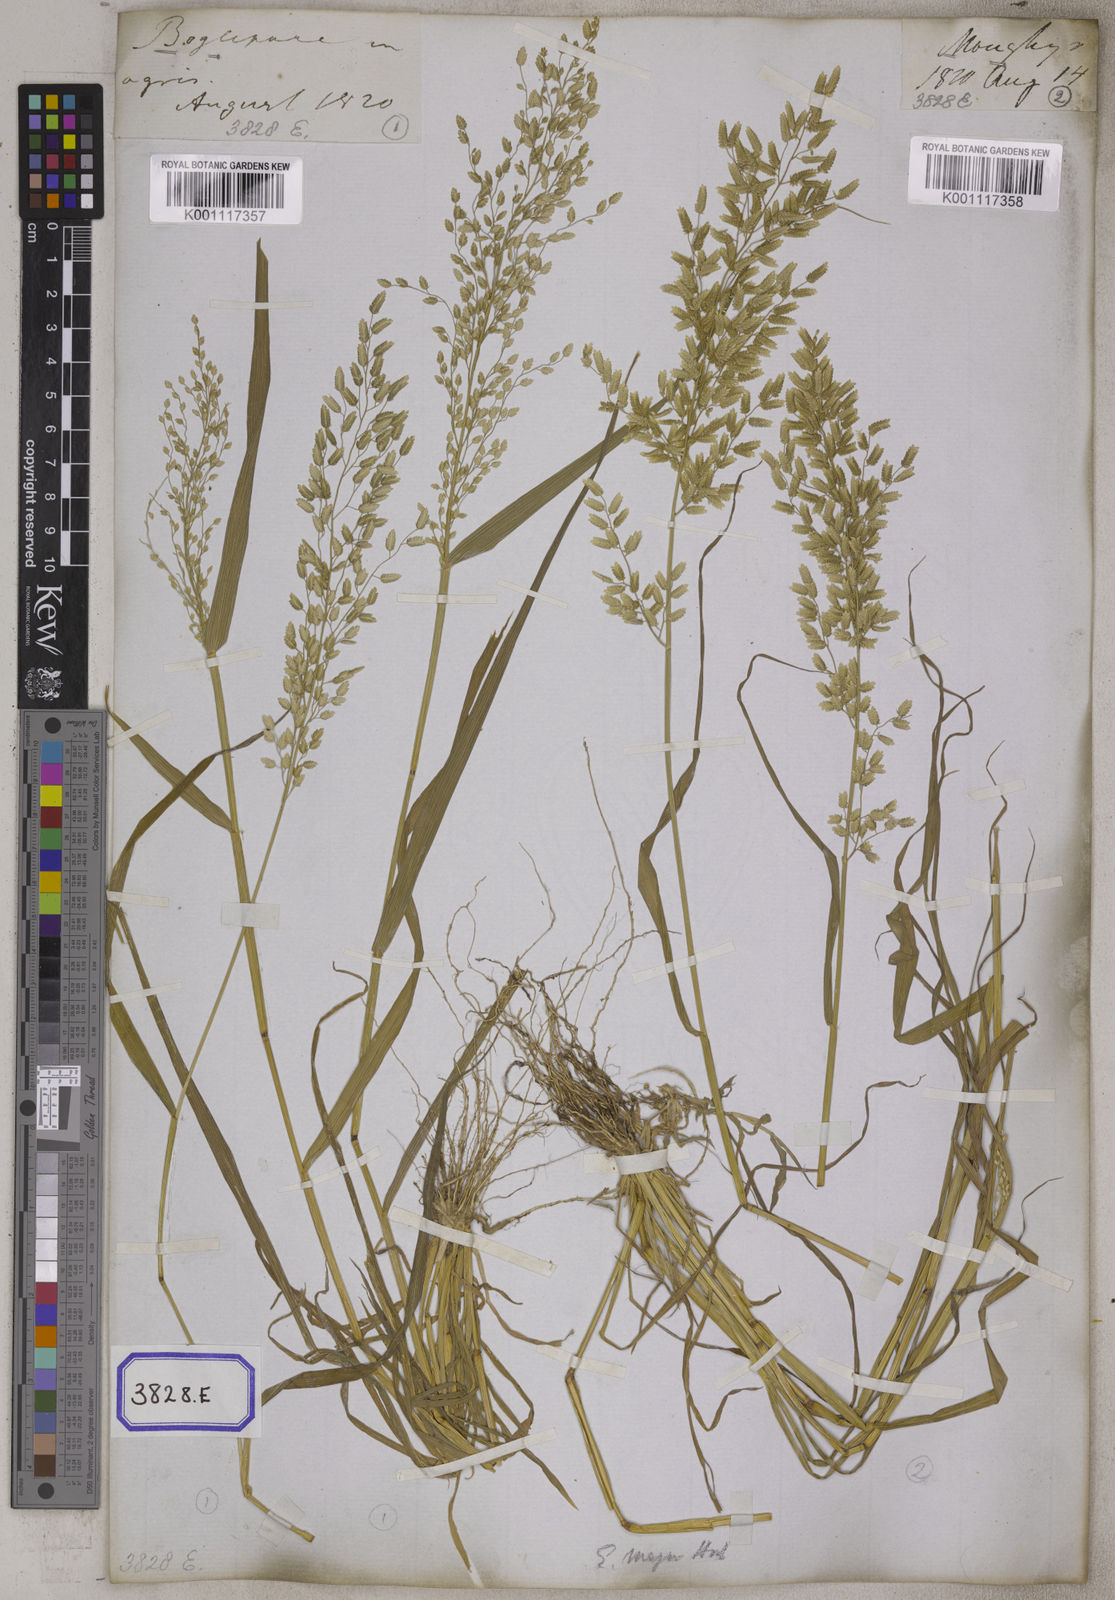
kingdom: Plantae
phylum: Tracheophyta
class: Liliopsida
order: Poales
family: Poaceae
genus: Eragrostis
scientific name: Eragrostis
